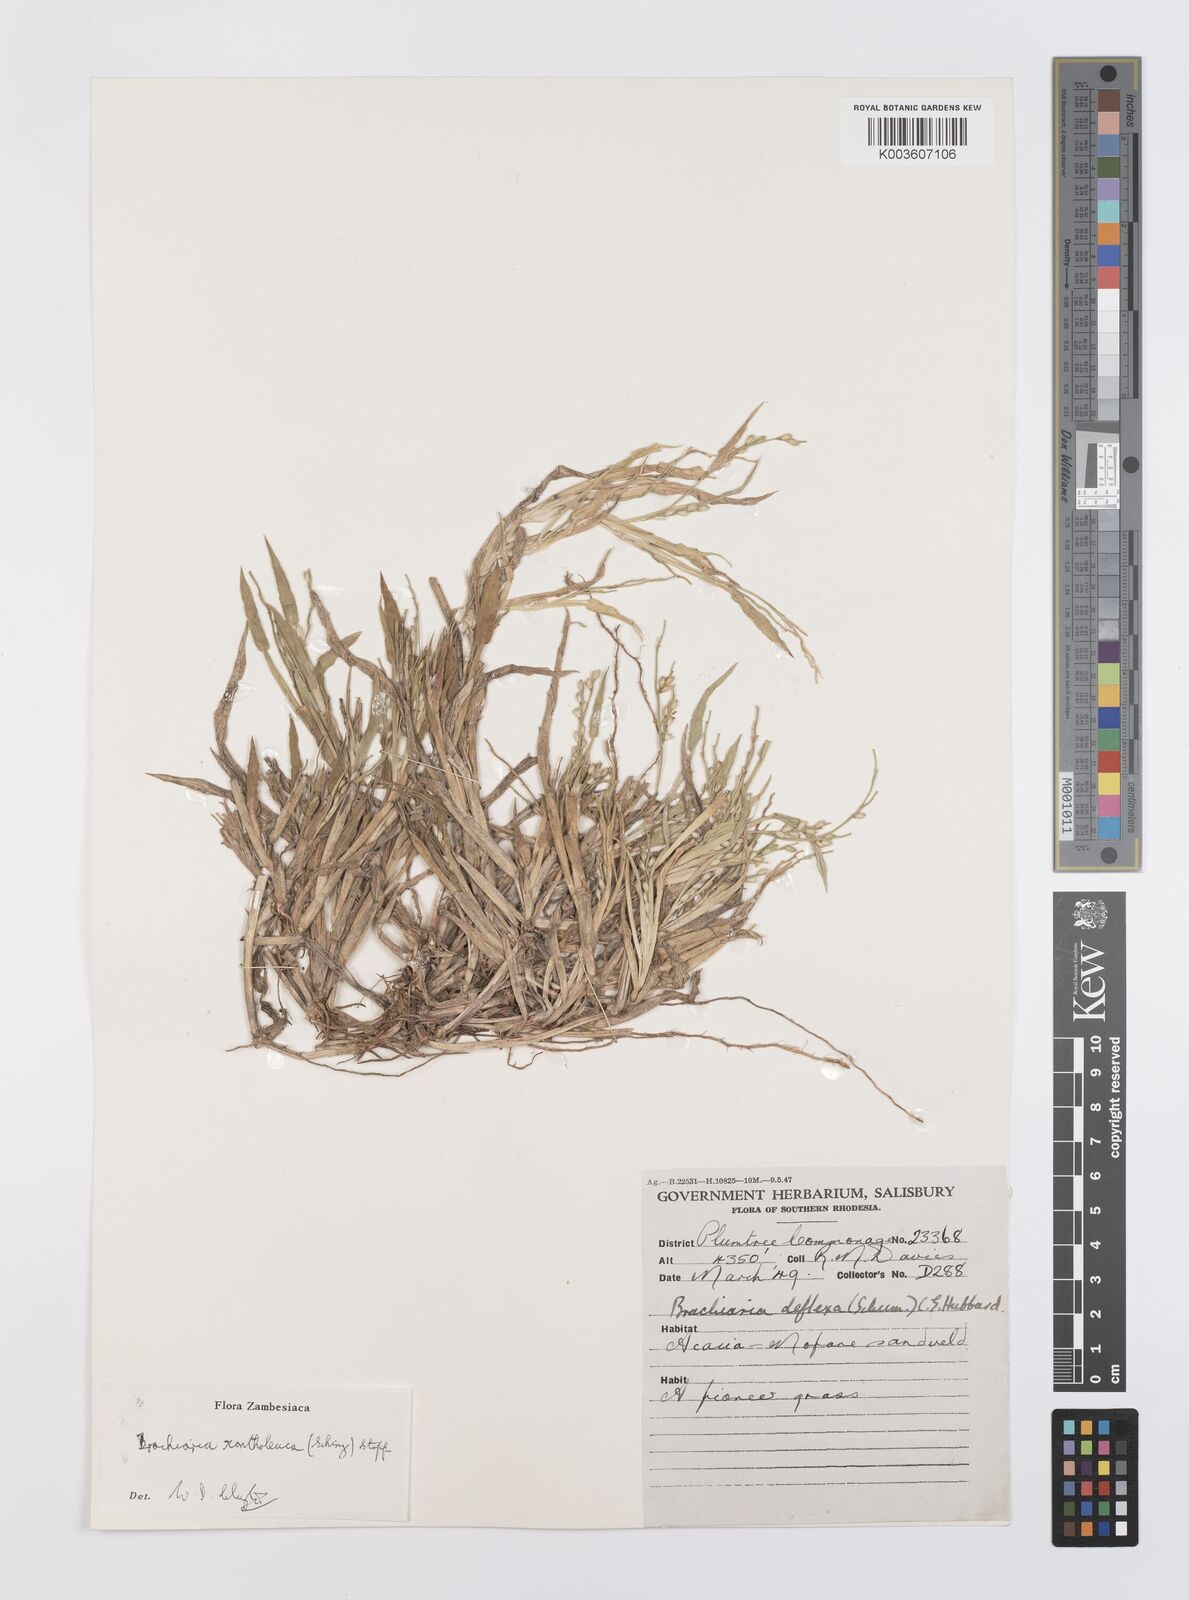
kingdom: Plantae
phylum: Tracheophyta
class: Liliopsida
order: Poales
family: Poaceae
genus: Urochloa
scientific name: Urochloa xantholeuca
